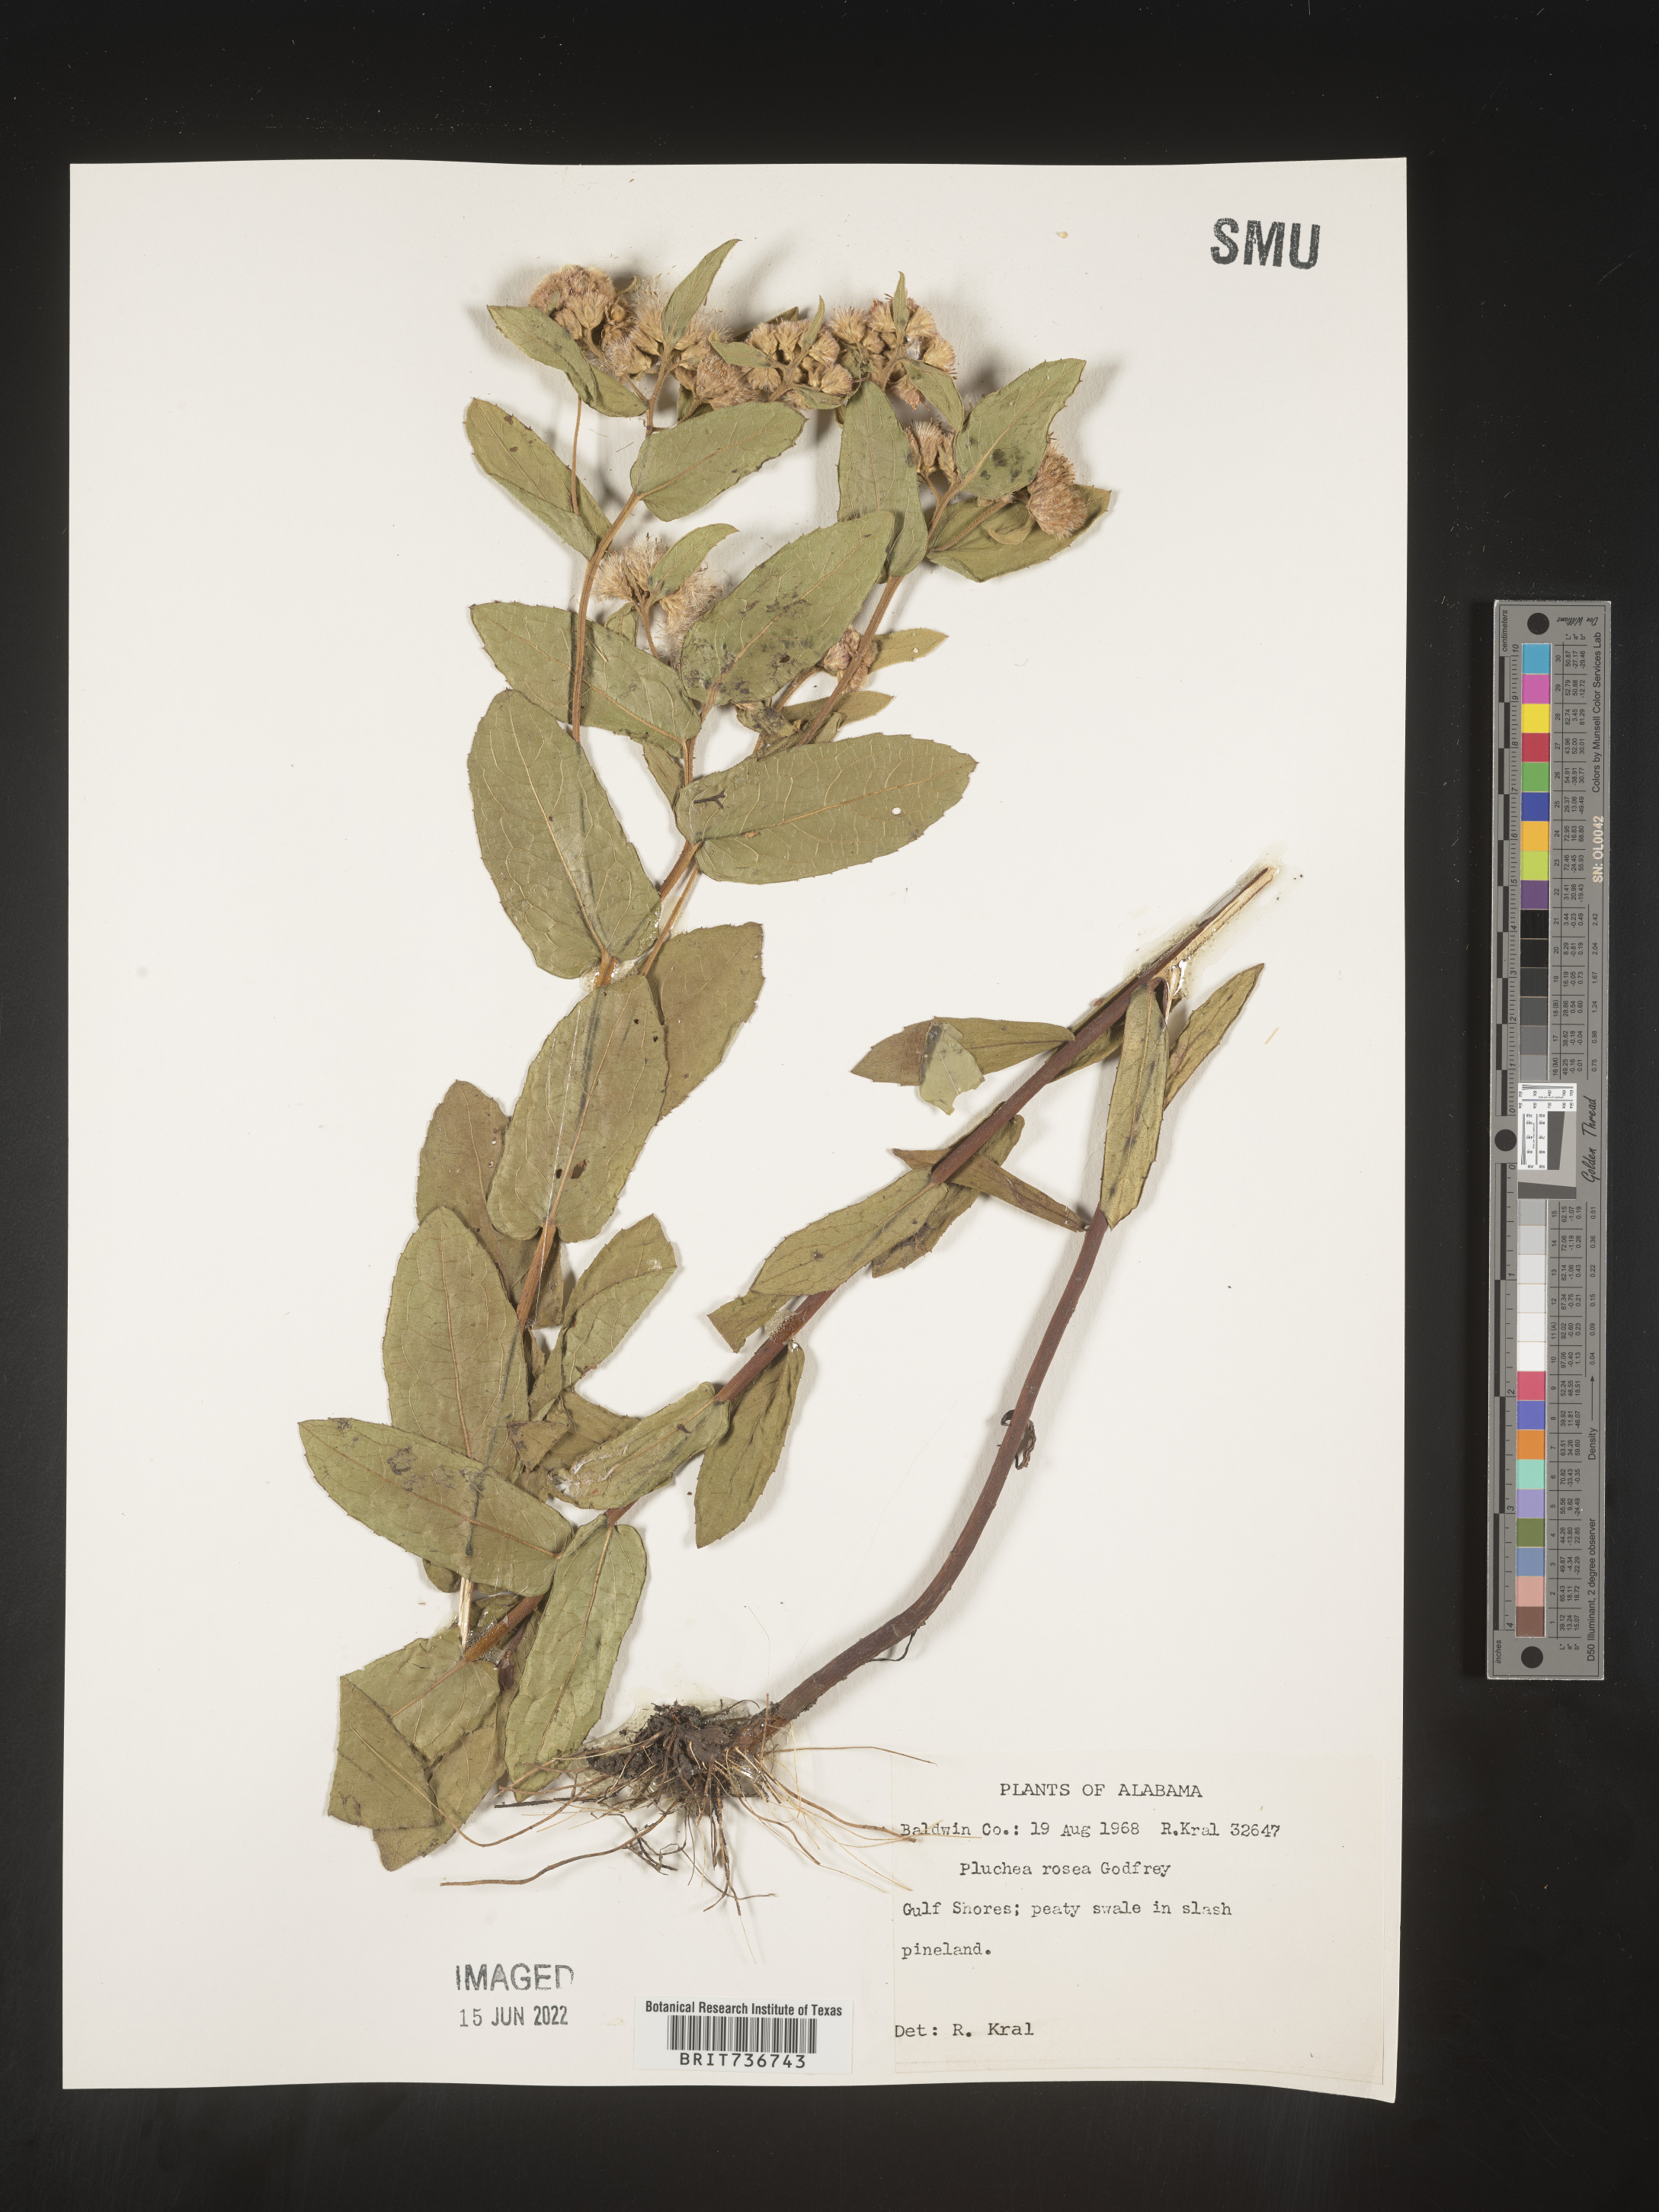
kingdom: Plantae
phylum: Tracheophyta
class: Magnoliopsida
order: Asterales
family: Asteraceae
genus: Pluchea
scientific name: Pluchea baccharis
